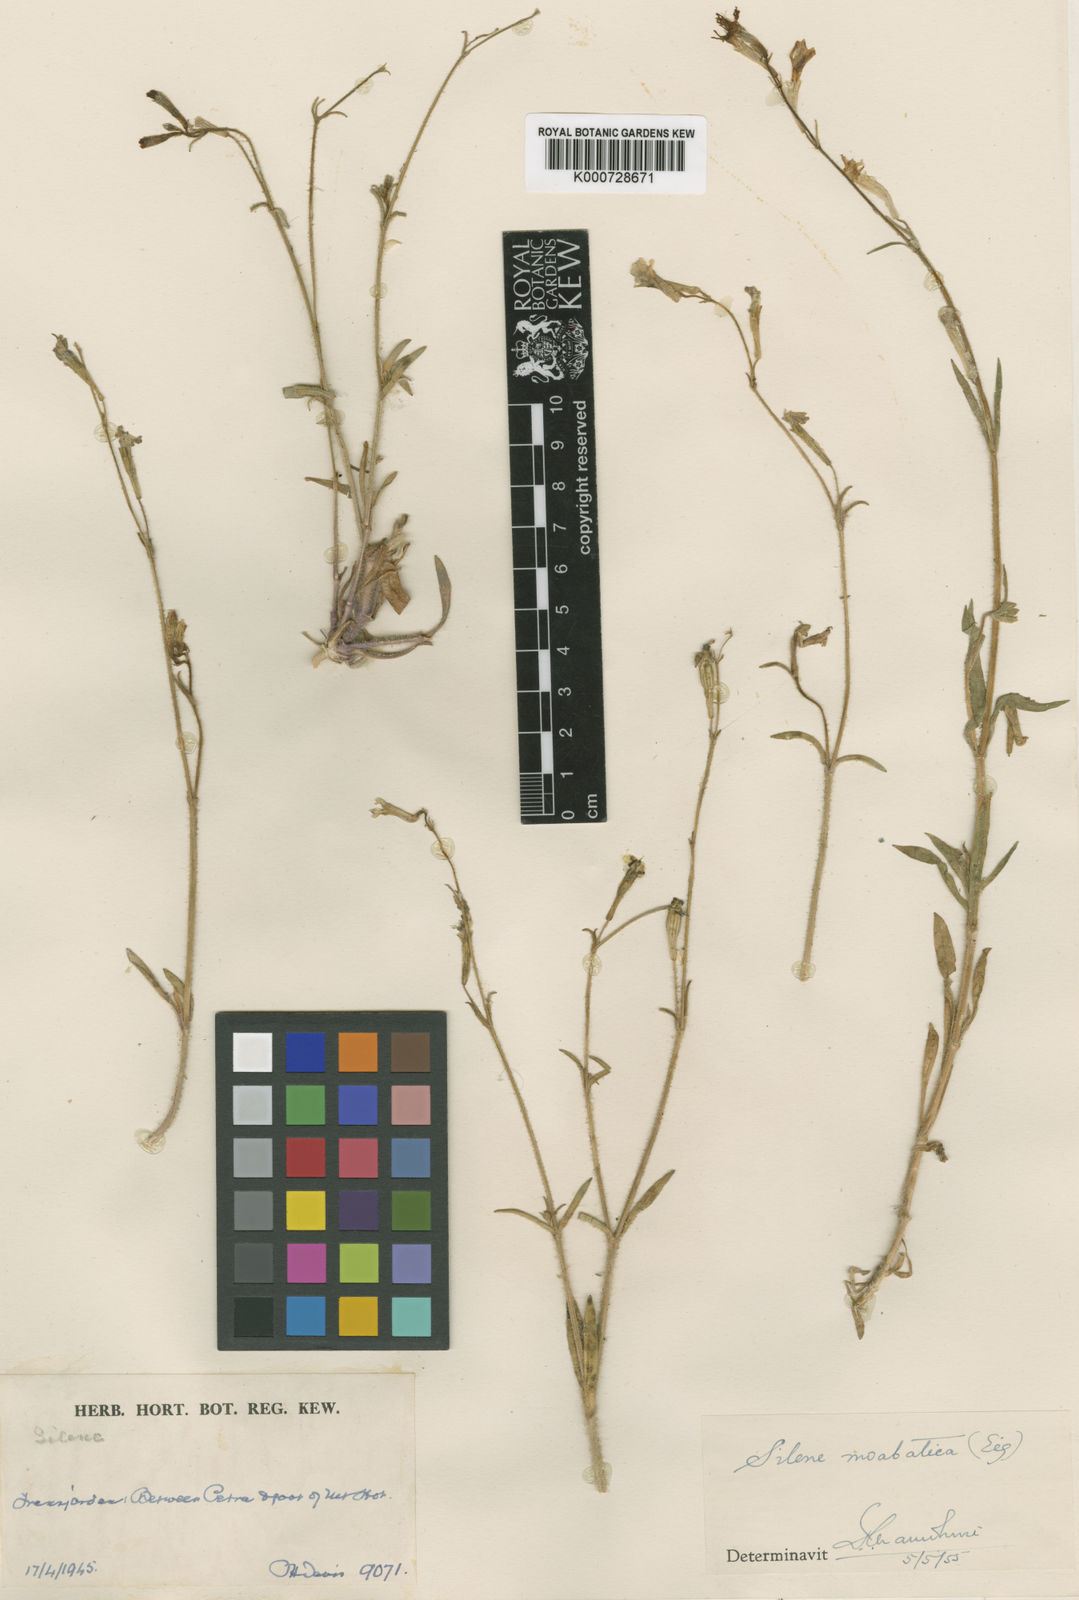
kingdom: Plantae
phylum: Tracheophyta
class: Magnoliopsida
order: Caryophyllales
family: Caryophyllaceae
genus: Silene
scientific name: Silene moabitica
